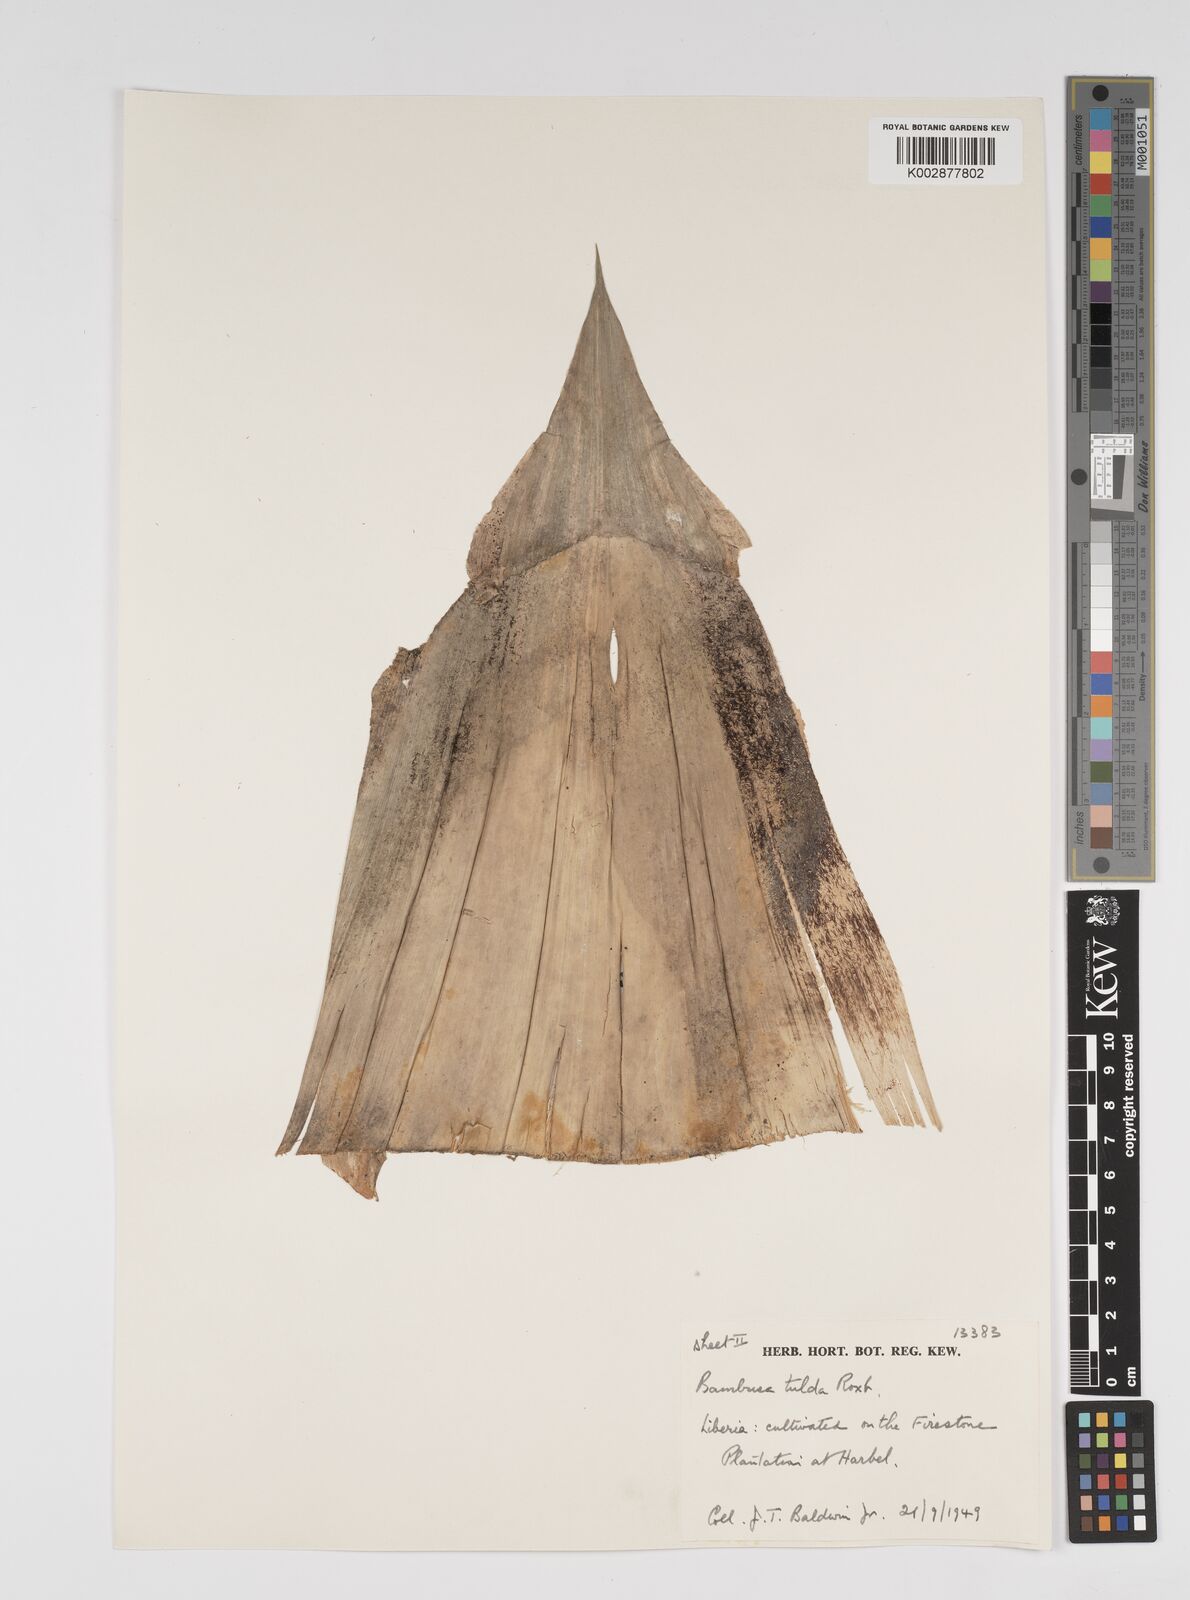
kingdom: Plantae
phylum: Tracheophyta
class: Liliopsida
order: Poales
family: Poaceae
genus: Bambusa
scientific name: Bambusa tulda
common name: Bengal bamboo
